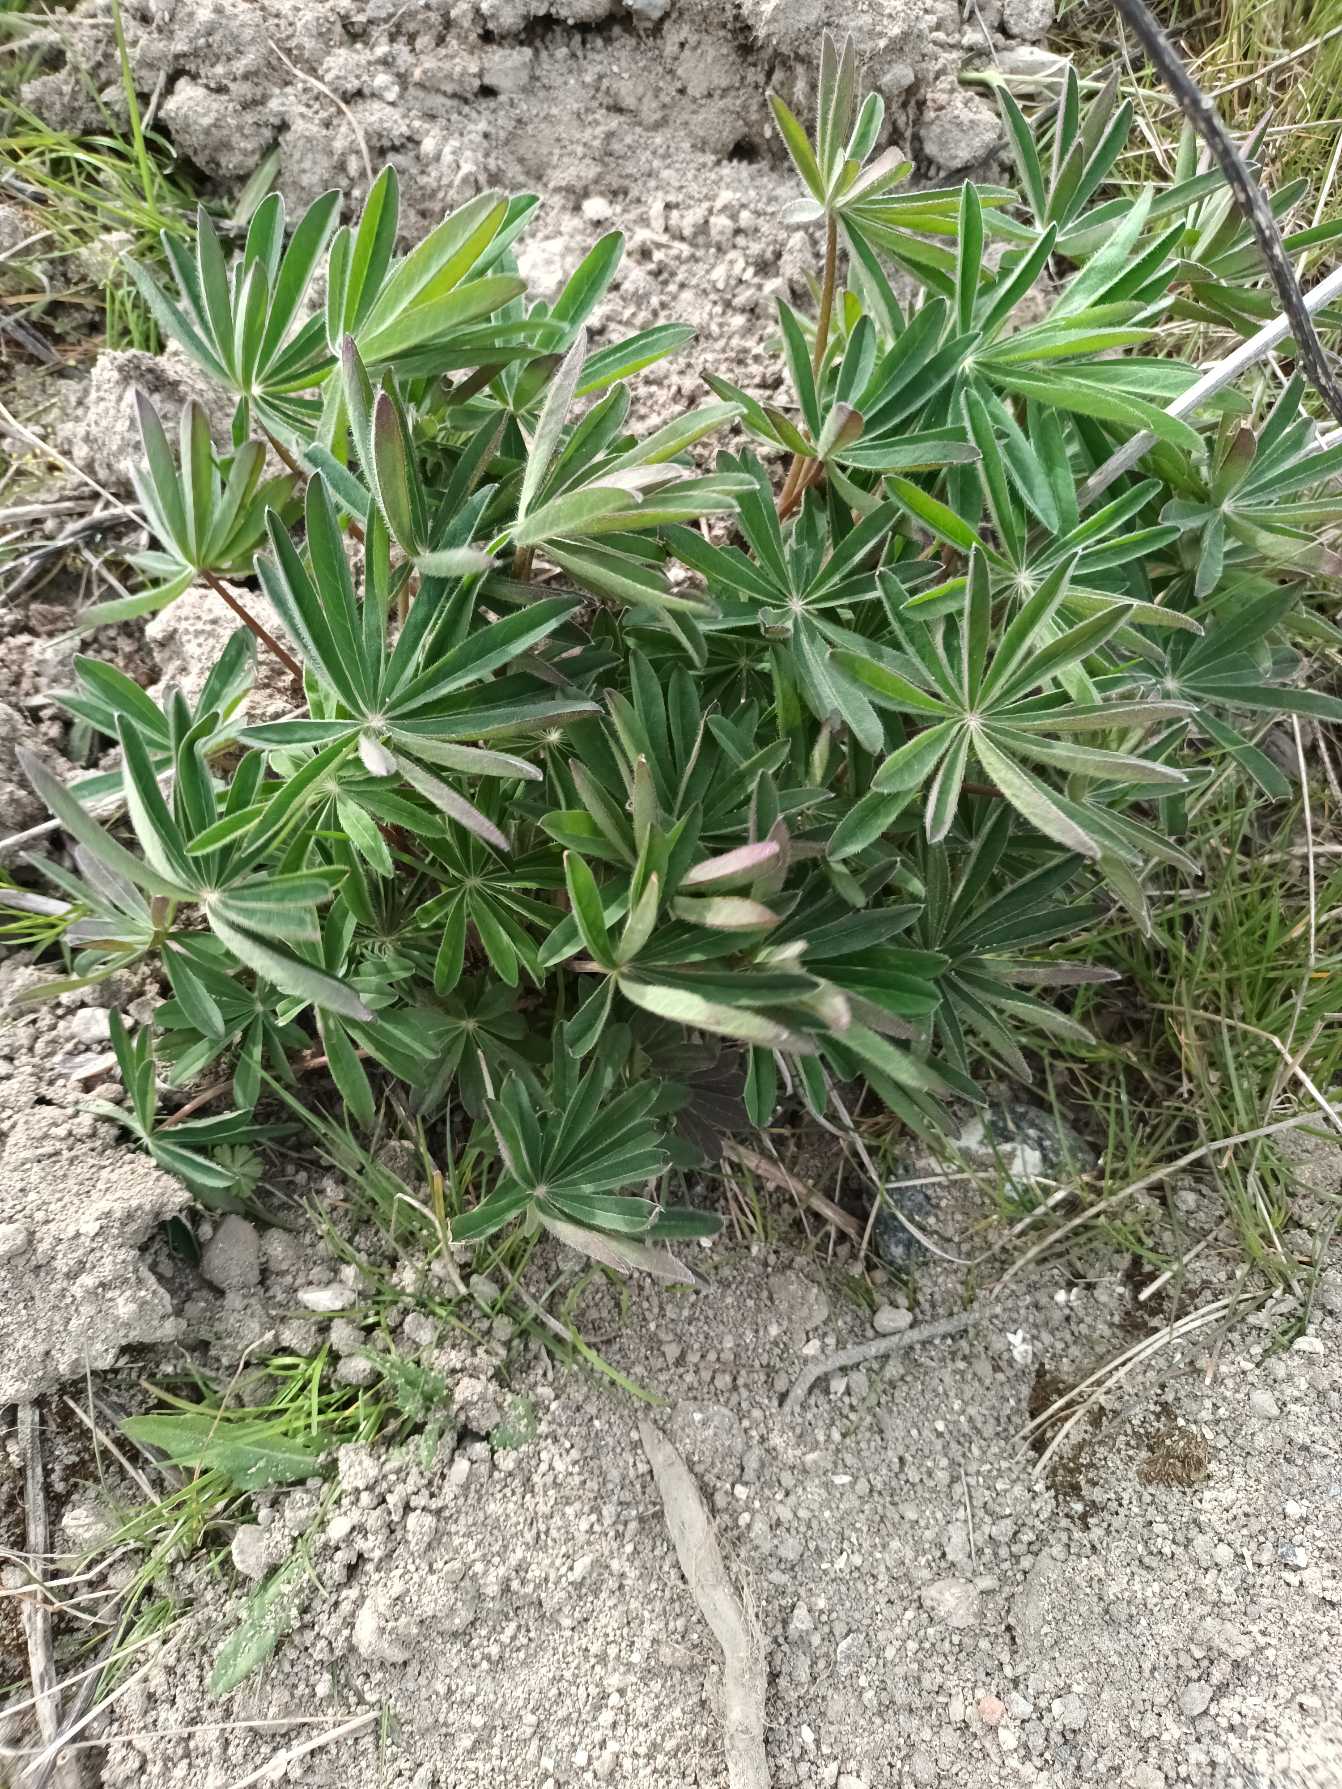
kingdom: Plantae
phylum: Tracheophyta
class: Magnoliopsida
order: Fabales
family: Fabaceae
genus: Lupinus
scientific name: Lupinus polyphyllus
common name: Mangebladet lupin
